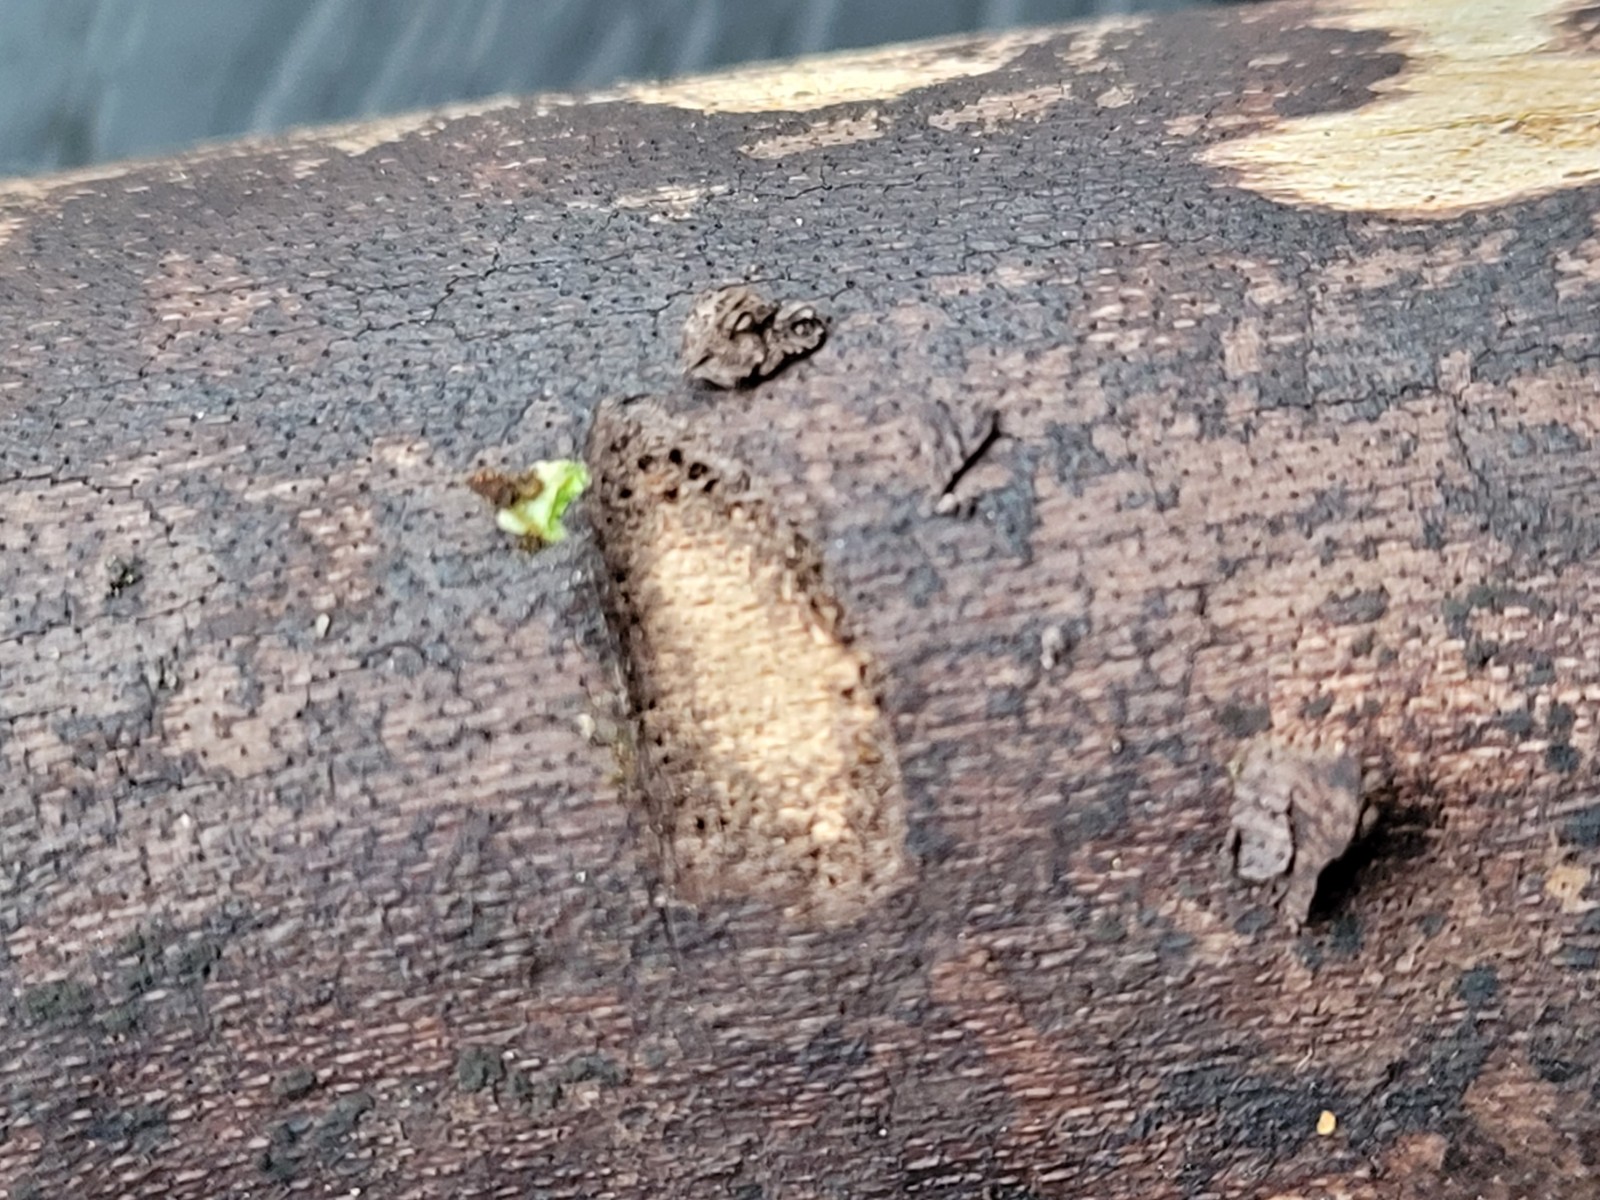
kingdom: Fungi
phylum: Ascomycota
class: Sordariomycetes
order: Xylariales
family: Diatrypaceae
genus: Eutypa
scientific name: Eutypa maura
